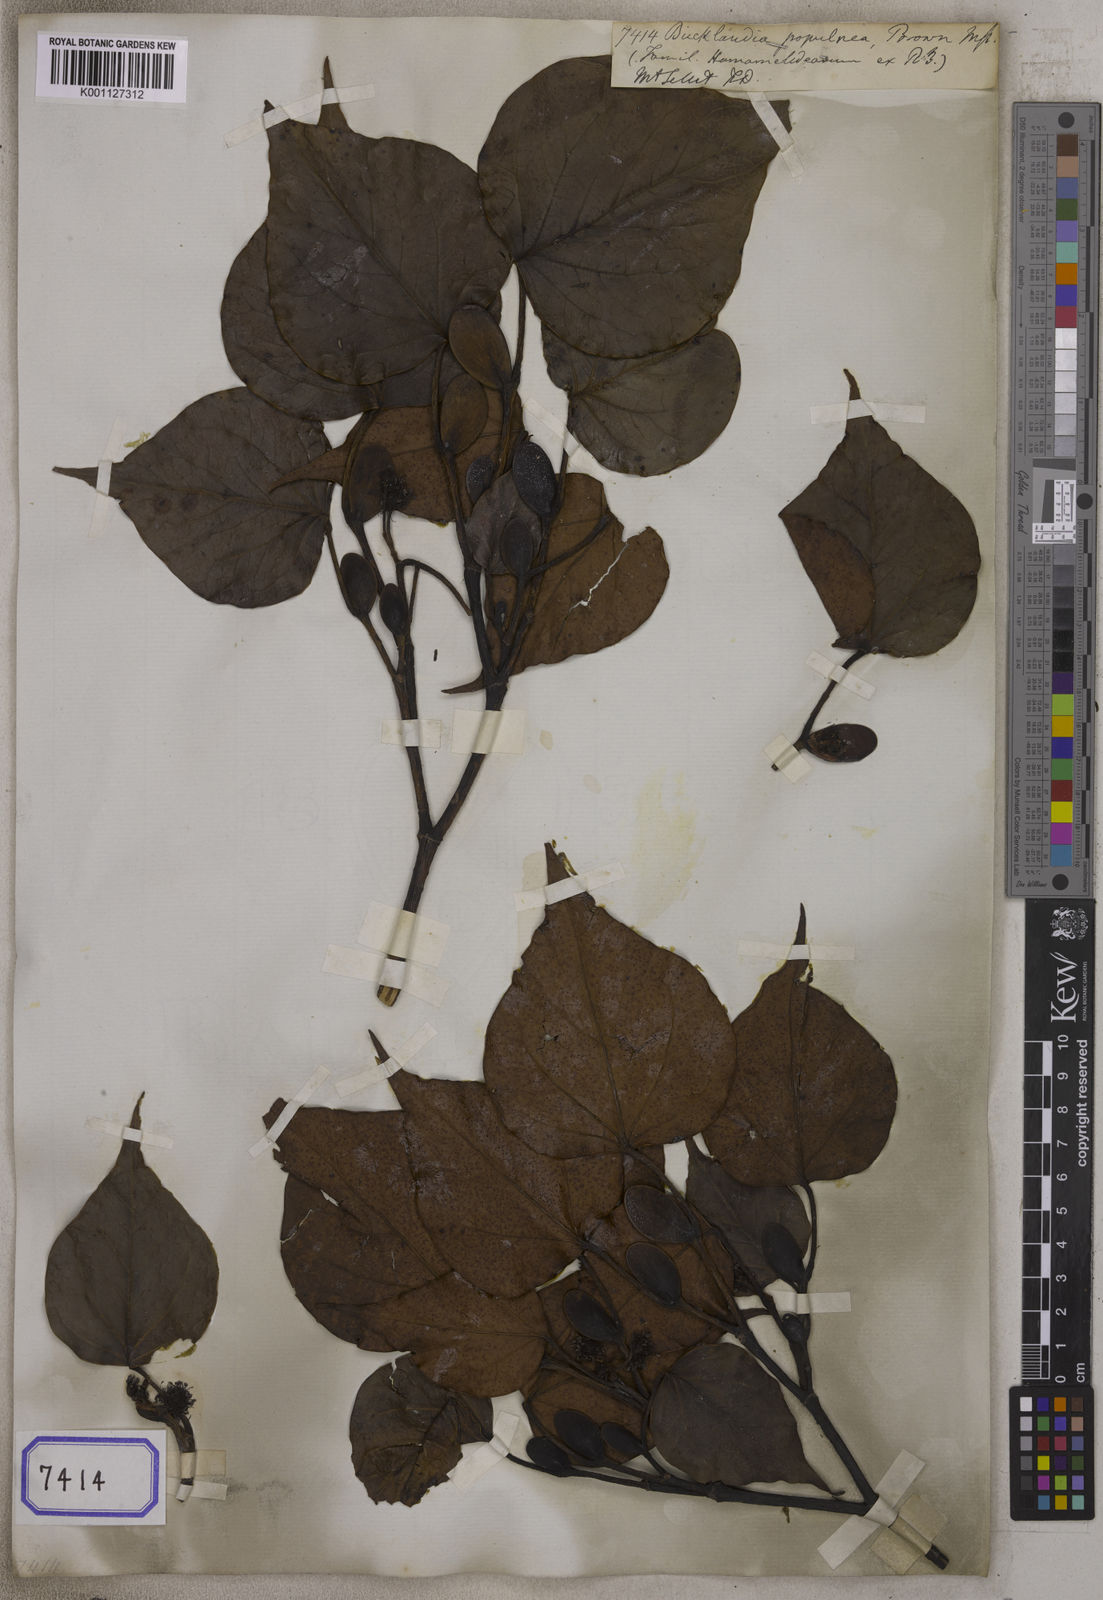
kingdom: Plantae
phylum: Tracheophyta
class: Magnoliopsida
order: Saxifragales
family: Hamamelidaceae
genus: Bucklandia
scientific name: Bucklandia
